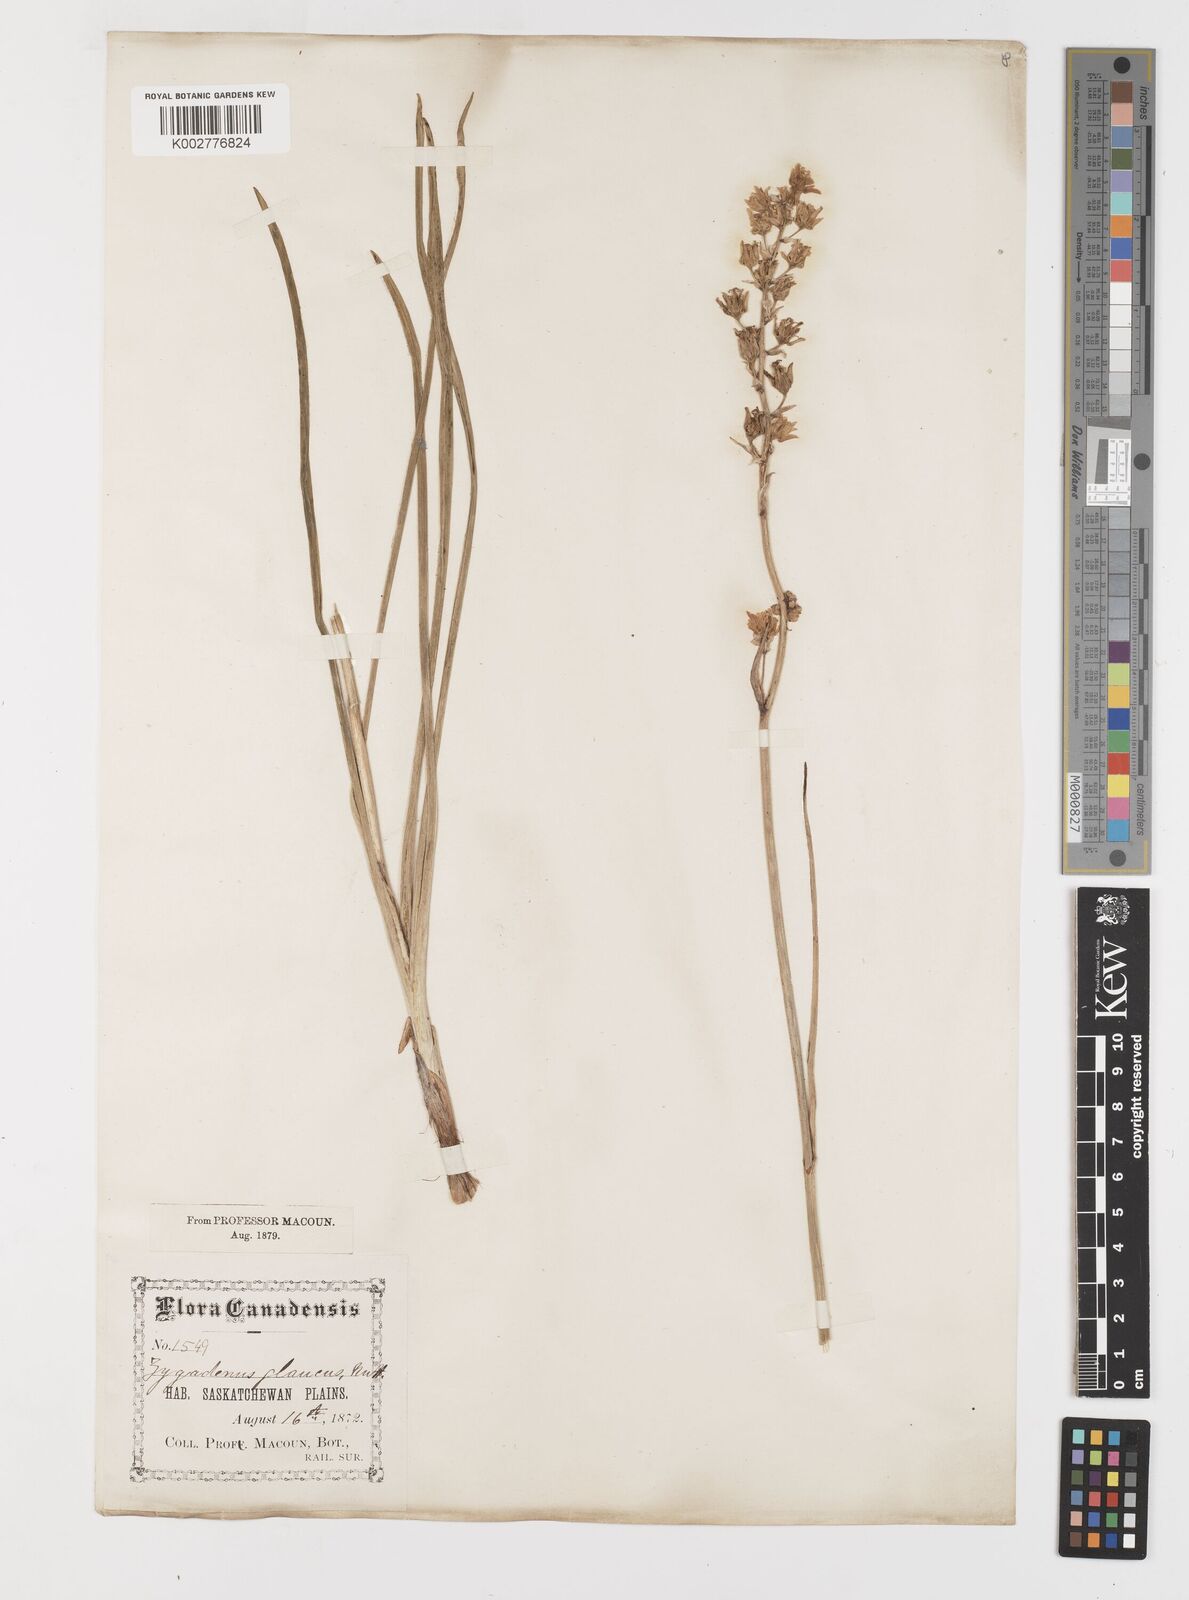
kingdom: Plantae
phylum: Tracheophyta
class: Liliopsida
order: Liliales
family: Melanthiaceae
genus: Anticlea
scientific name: Anticlea elegans
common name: Mountain death camas
